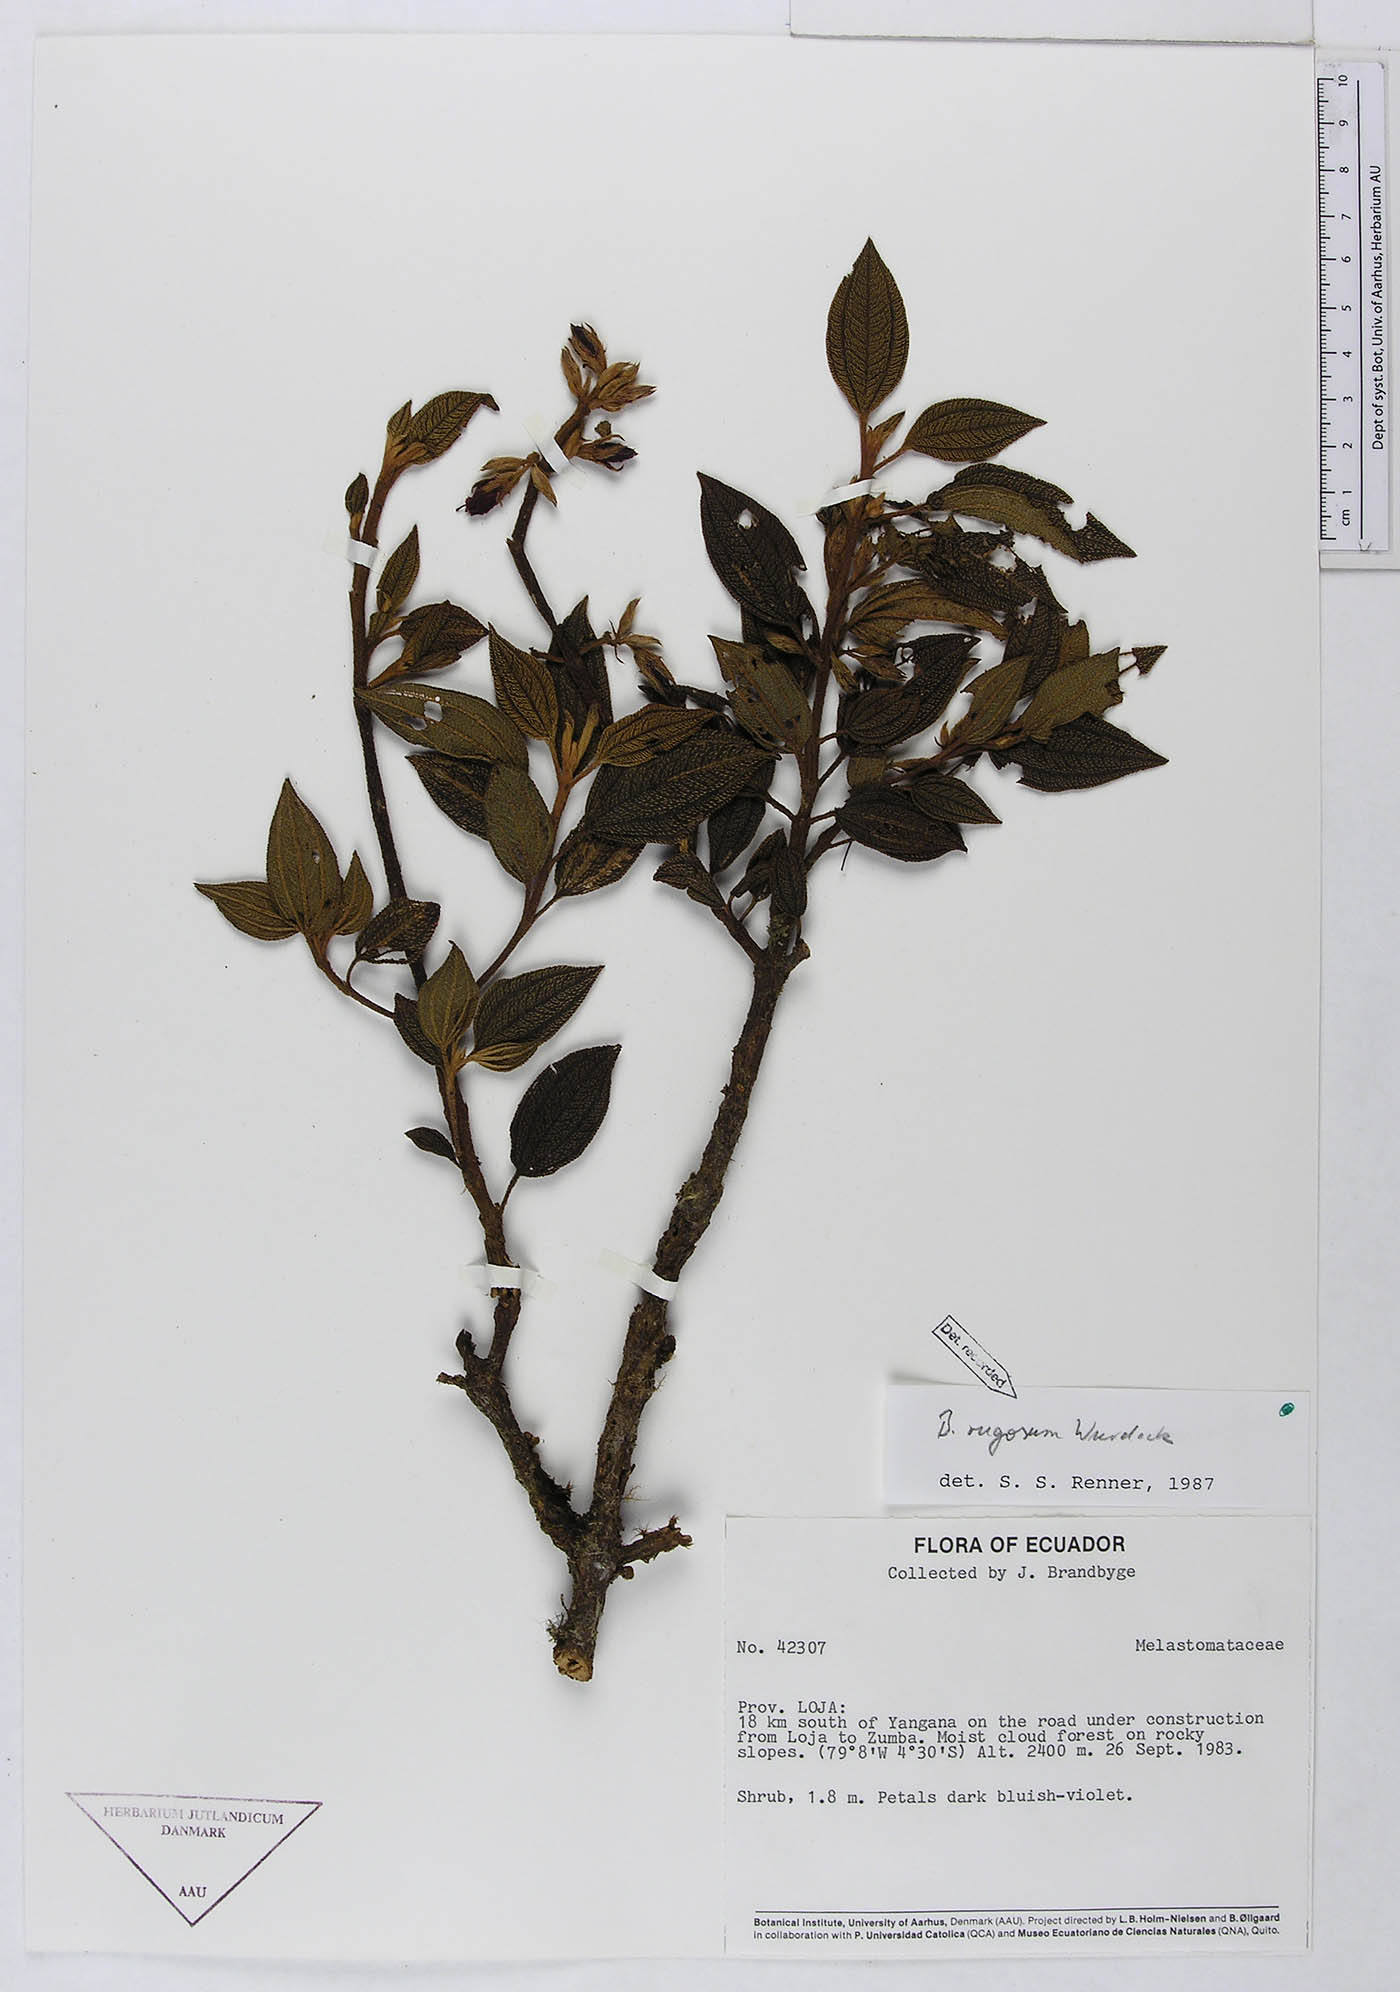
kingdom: Plantae
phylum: Tracheophyta
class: Magnoliopsida
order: Myrtales
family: Melastomataceae
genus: Brachyotum
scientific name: Brachyotum rugosum
